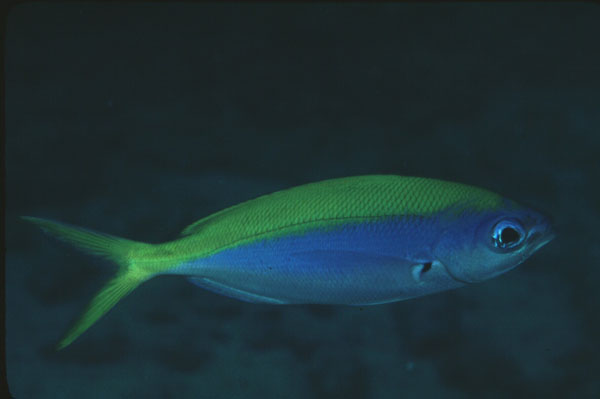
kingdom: Animalia
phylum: Chordata
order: Perciformes
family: Caesionidae
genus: Caesio
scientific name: Caesio xanthonota
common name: Yellowback fusilier
